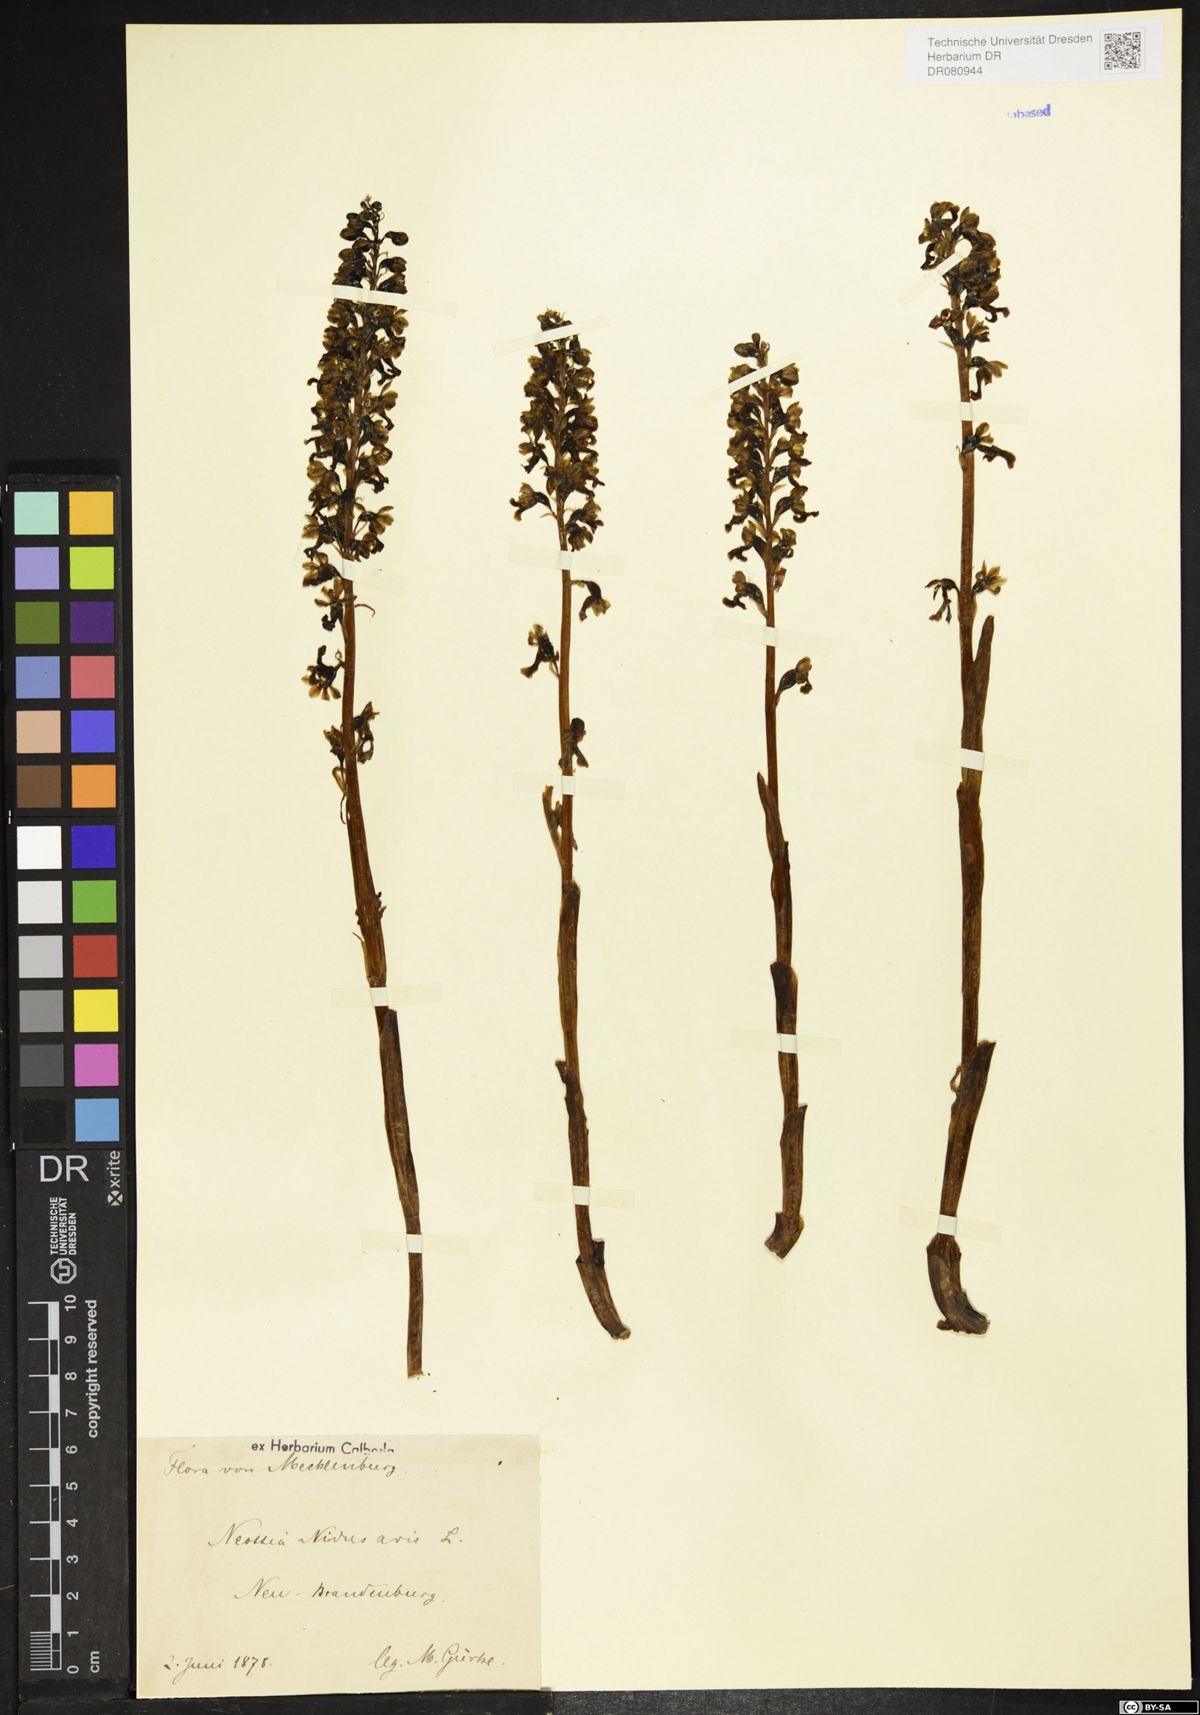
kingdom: Plantae
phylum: Tracheophyta
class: Liliopsida
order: Asparagales
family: Orchidaceae
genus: Neottia
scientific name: Neottia nidus-avis
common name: Bird's-nest orchid
